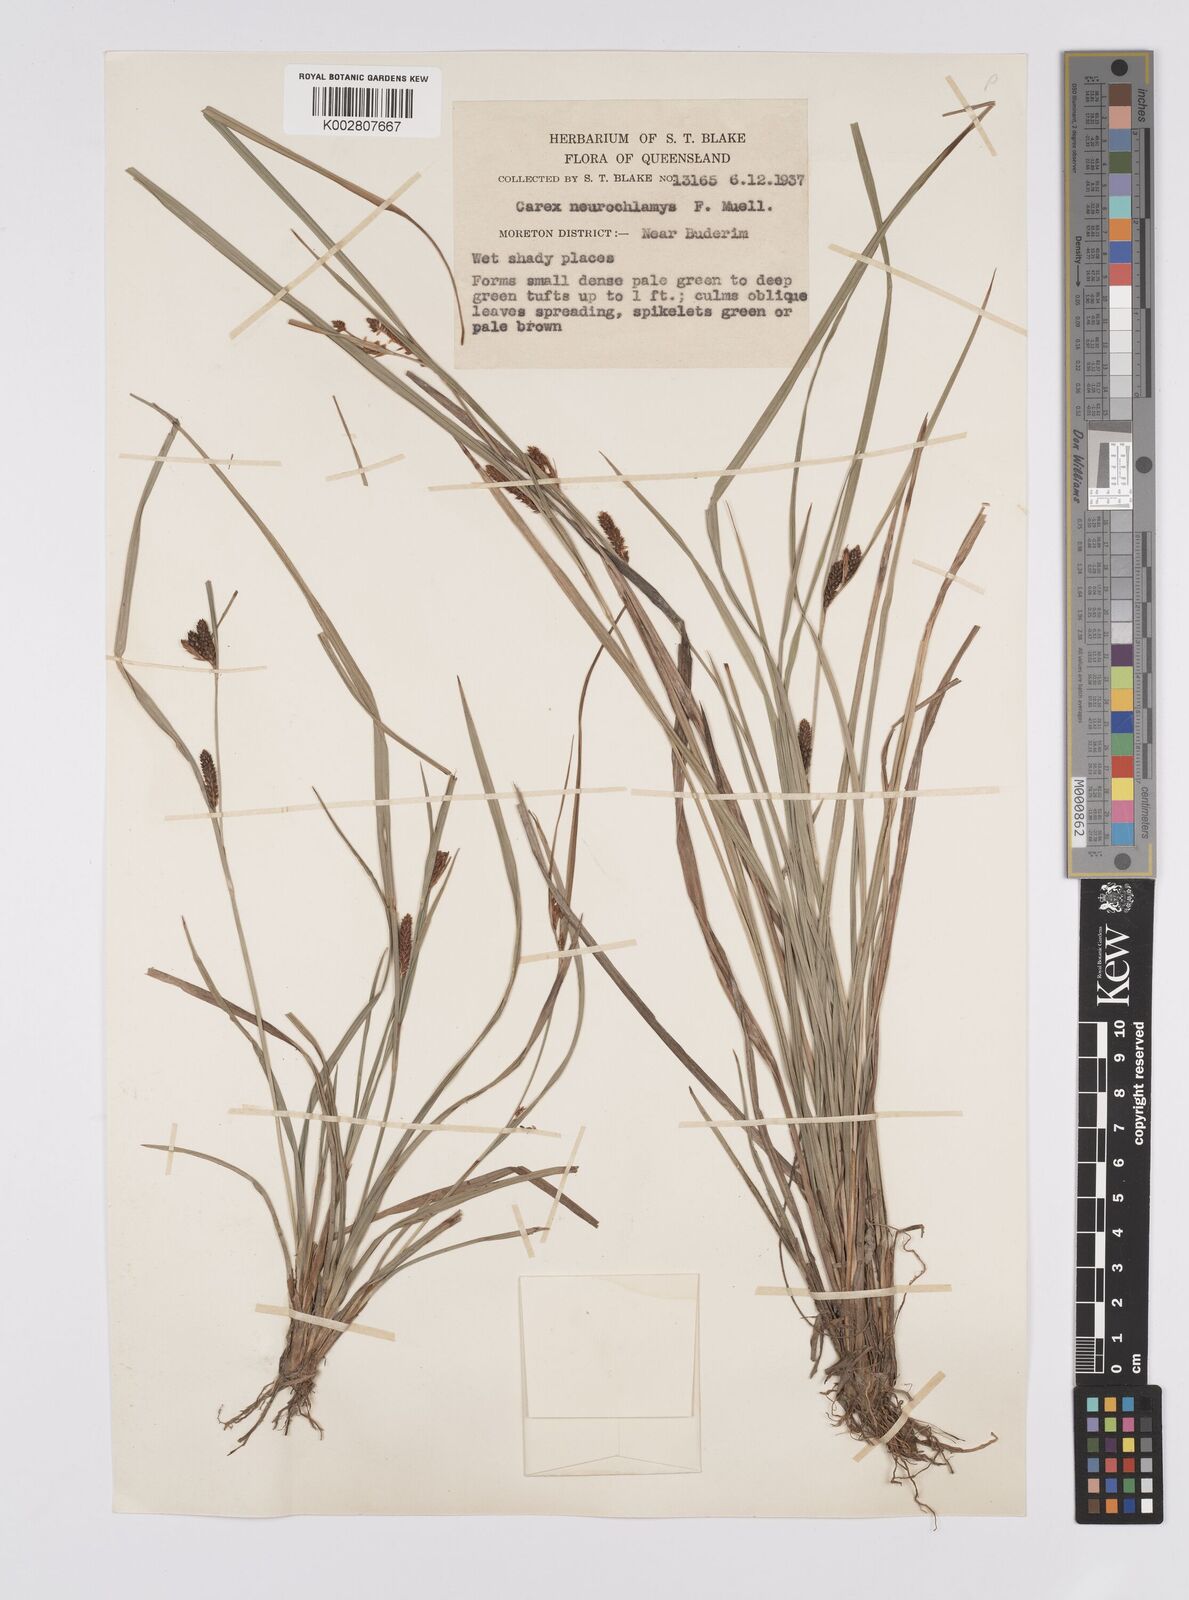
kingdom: Plantae
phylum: Tracheophyta
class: Liliopsida
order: Poales
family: Cyperaceae
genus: Carex
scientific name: Carex maculata
